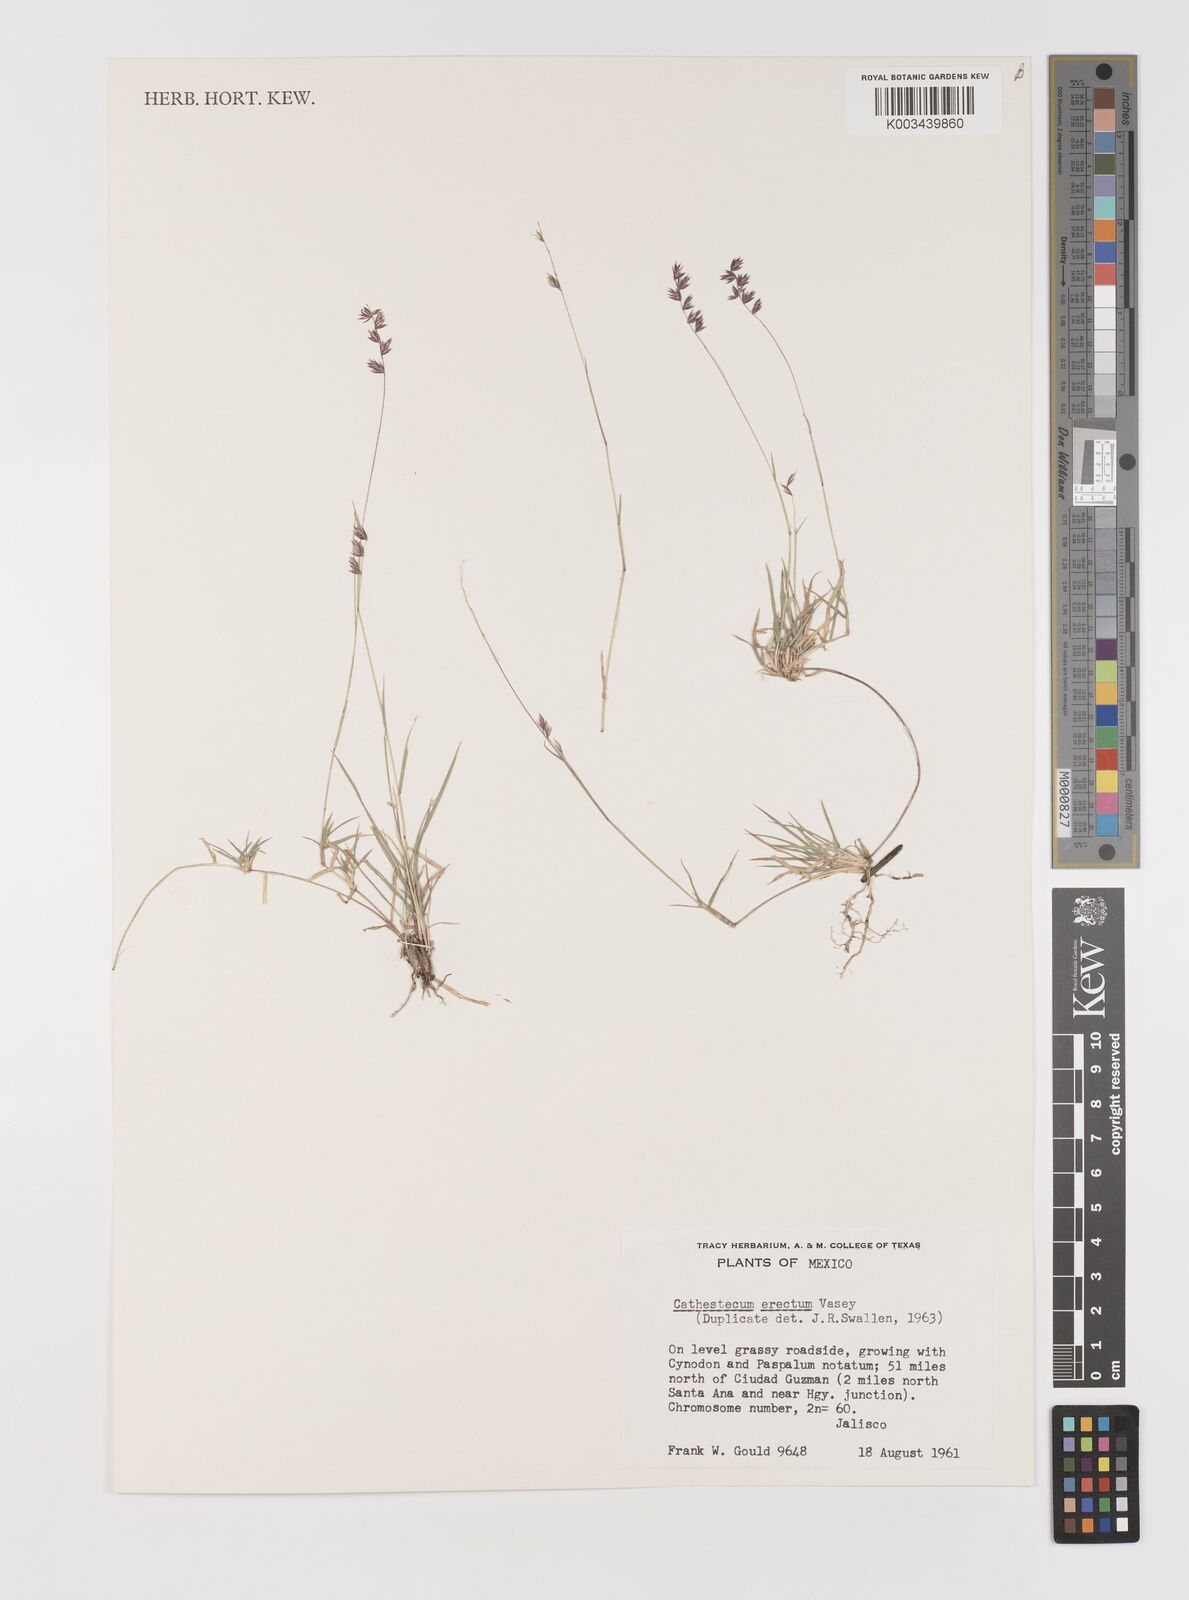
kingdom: Plantae
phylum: Tracheophyta
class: Liliopsida
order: Poales
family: Poaceae
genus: Bouteloua
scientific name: Bouteloua erecta
